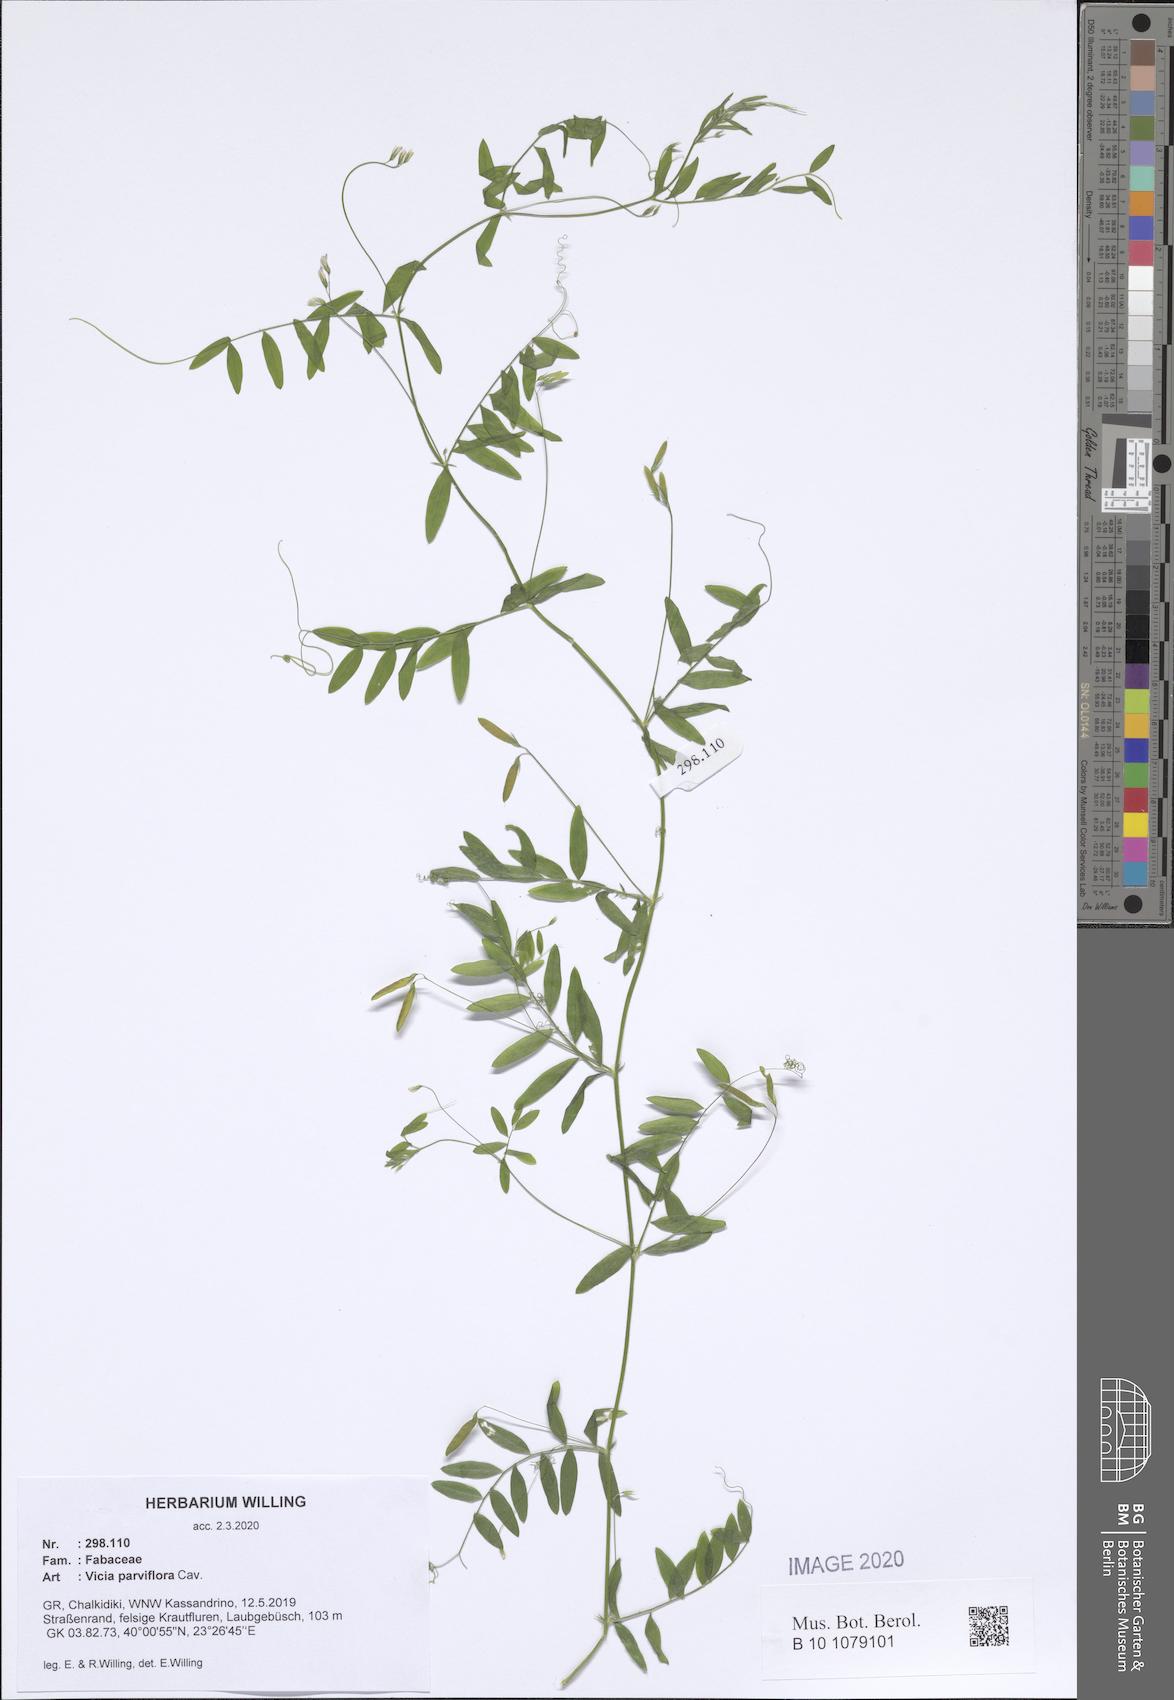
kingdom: Plantae
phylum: Tracheophyta
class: Magnoliopsida
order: Fabales
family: Fabaceae
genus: Vicia
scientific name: Vicia parviflora
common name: Slender tare
